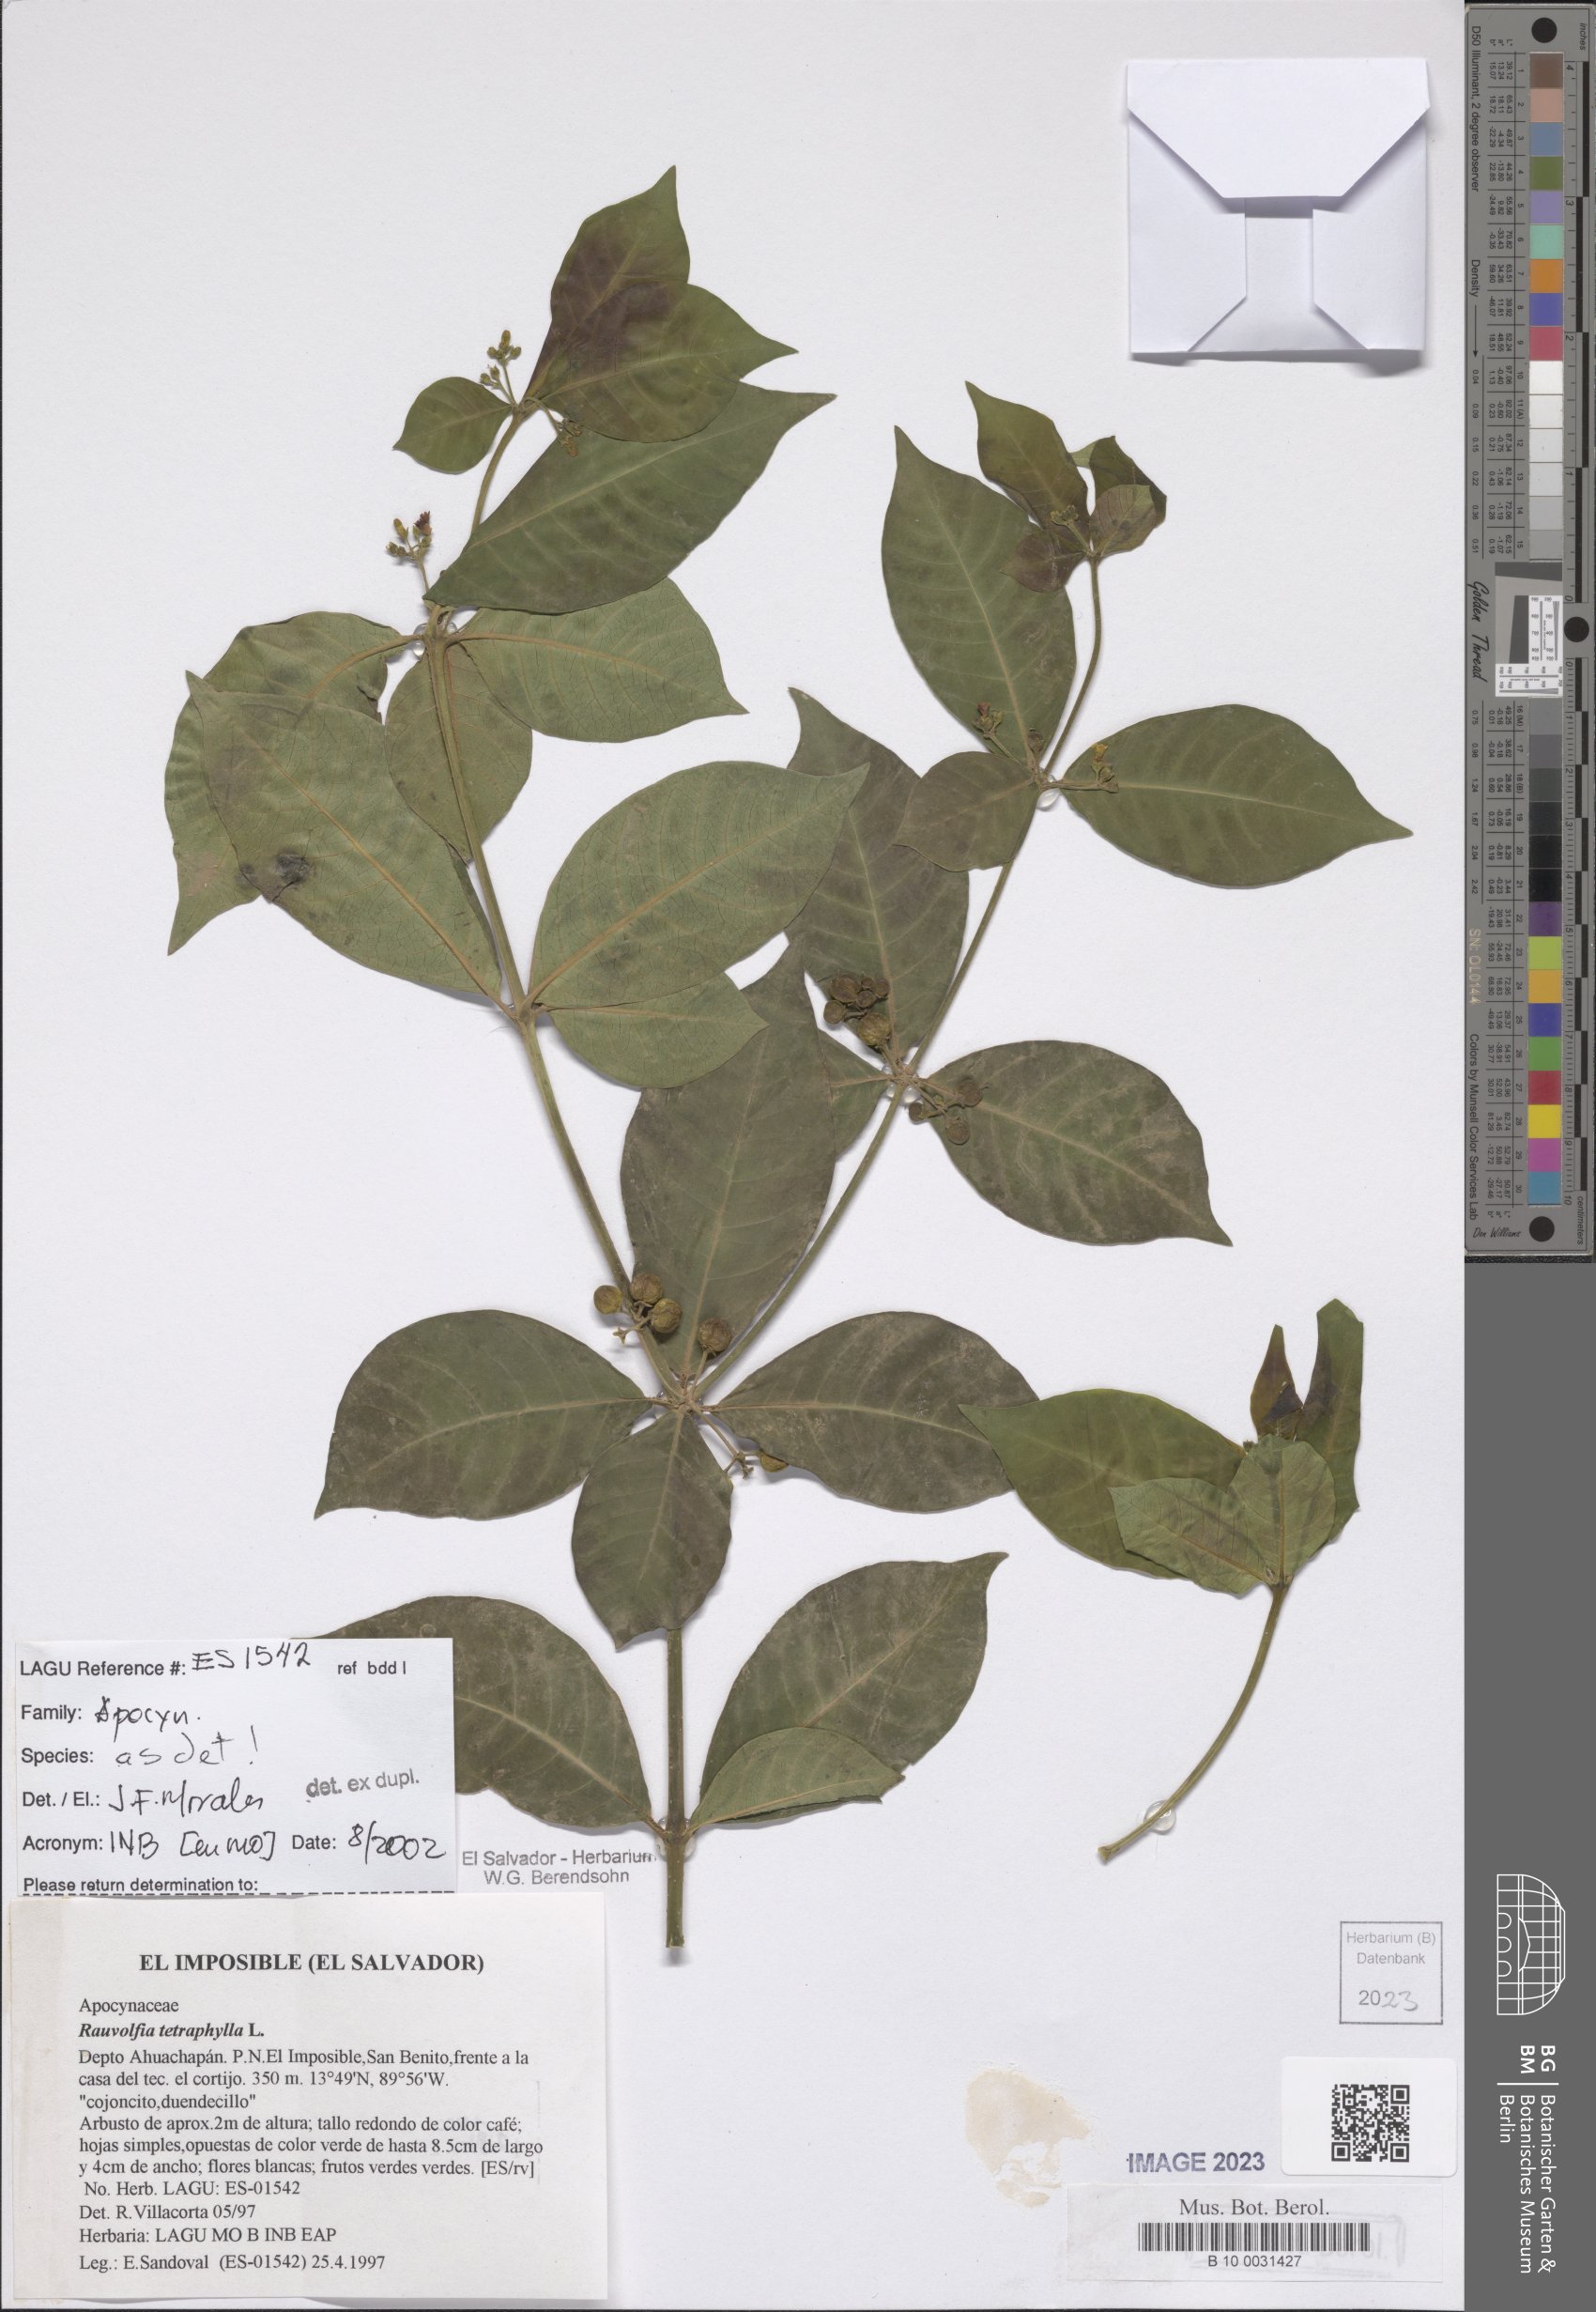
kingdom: Plantae
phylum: Tracheophyta
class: Magnoliopsida
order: Gentianales
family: Apocynaceae
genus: Rauvolfia
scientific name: Rauvolfia tetraphylla
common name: Four-leaf devil-pepper
